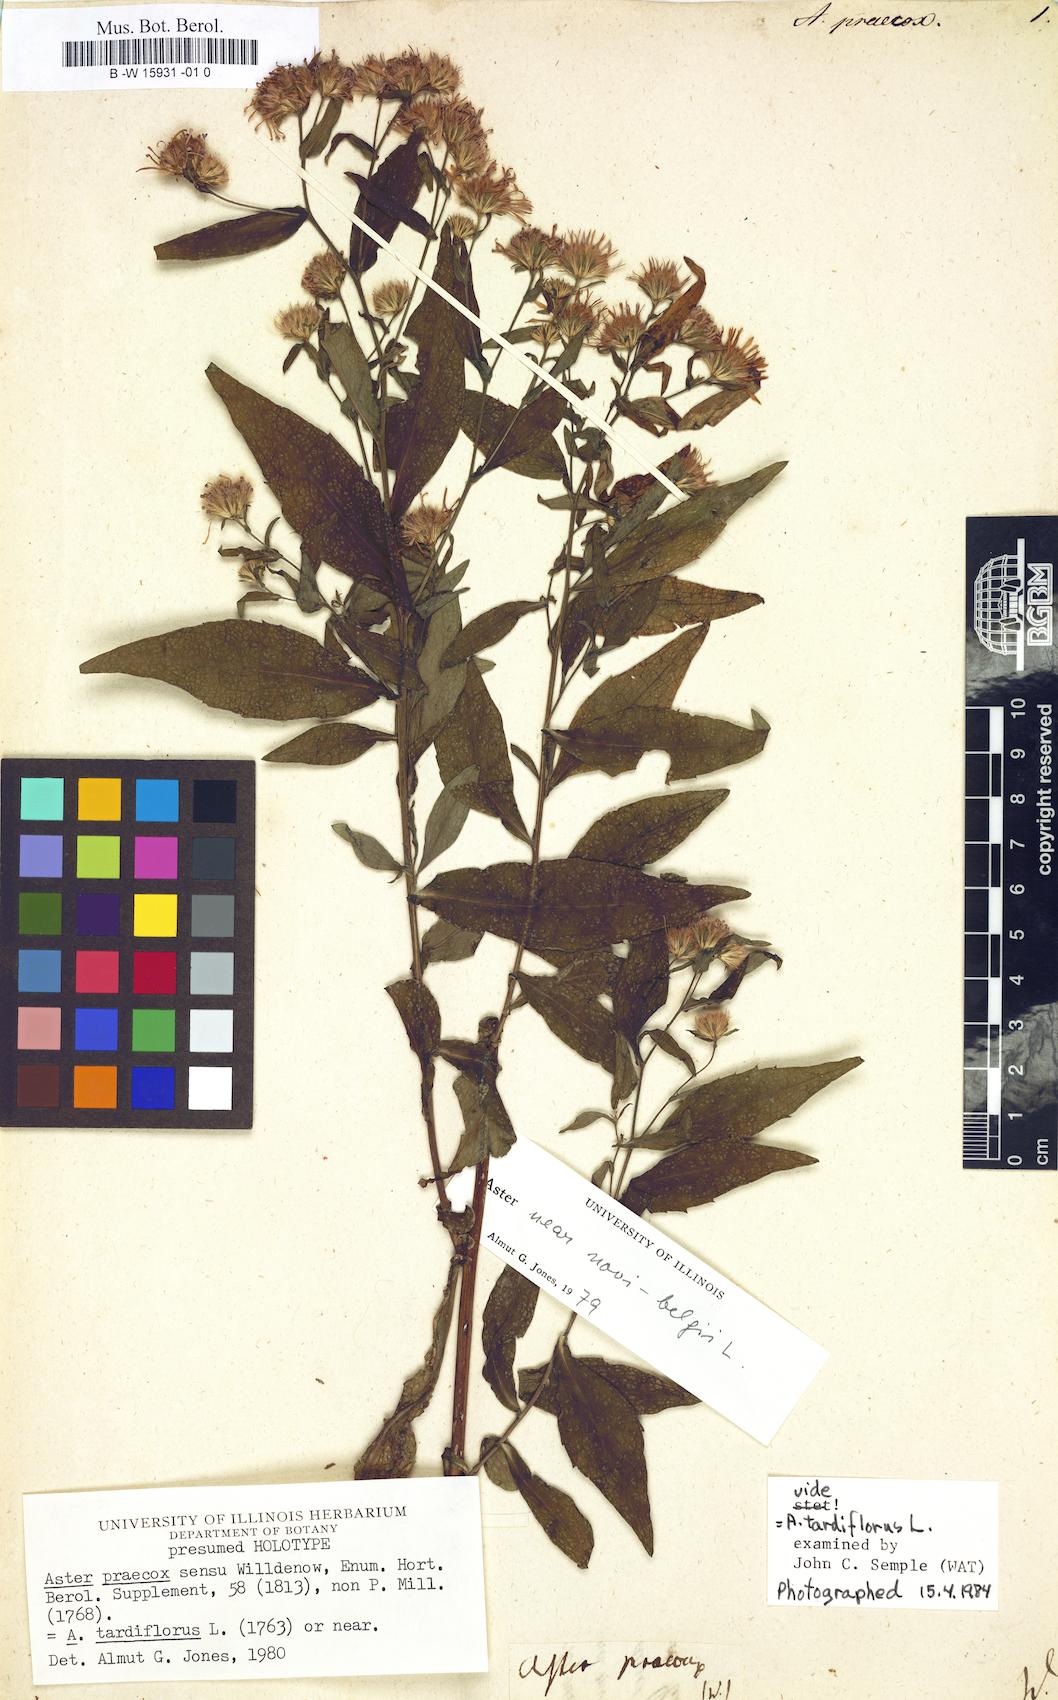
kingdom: Plantae
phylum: Tracheophyta
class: Magnoliopsida
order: Asterales
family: Asteraceae
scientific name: Asteraceae
